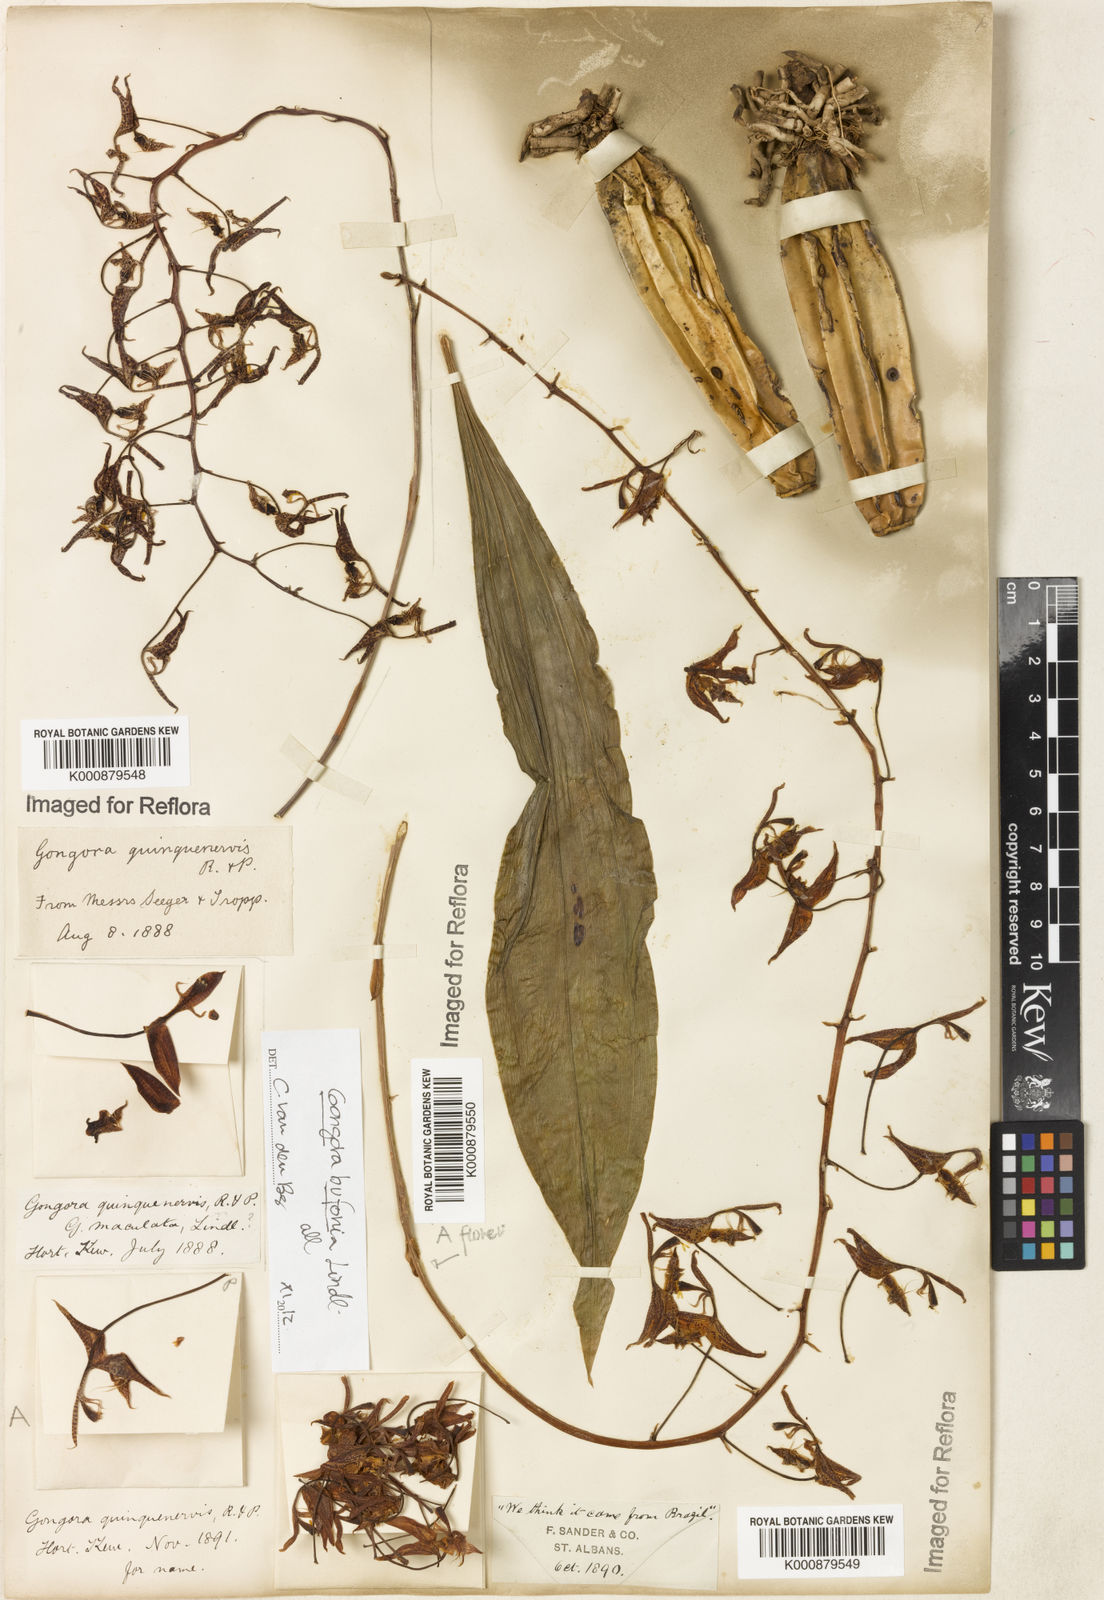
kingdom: Plantae
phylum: Tracheophyta
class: Liliopsida
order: Asparagales
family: Orchidaceae
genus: Gongora
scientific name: Gongora bufonia
